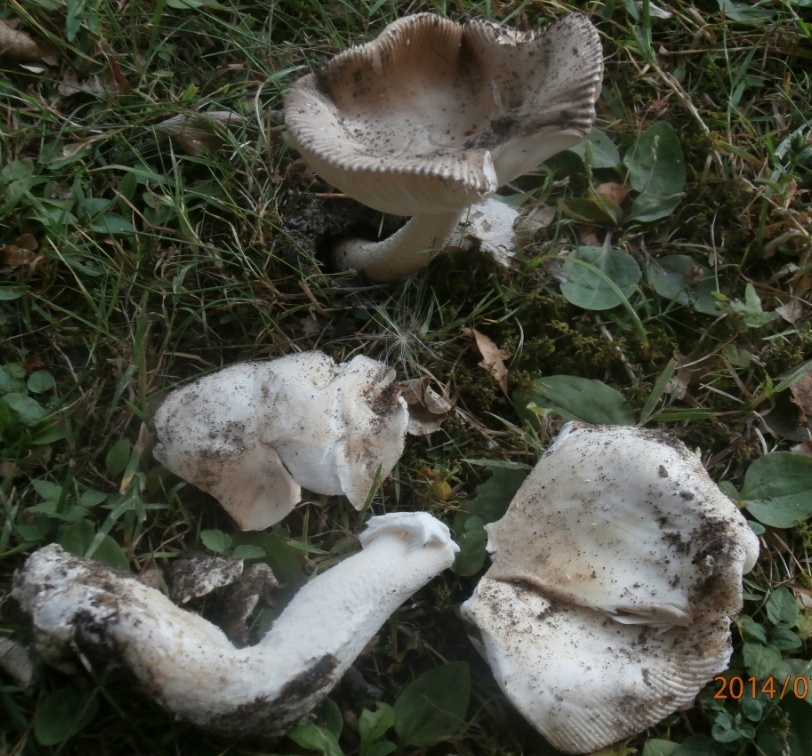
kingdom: Fungi
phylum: Basidiomycota
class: Agaricomycetes
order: Agaricales
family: Amanitaceae
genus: Amanita
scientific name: Amanita lividopallescens
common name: afblegende kam-fluesvamp
